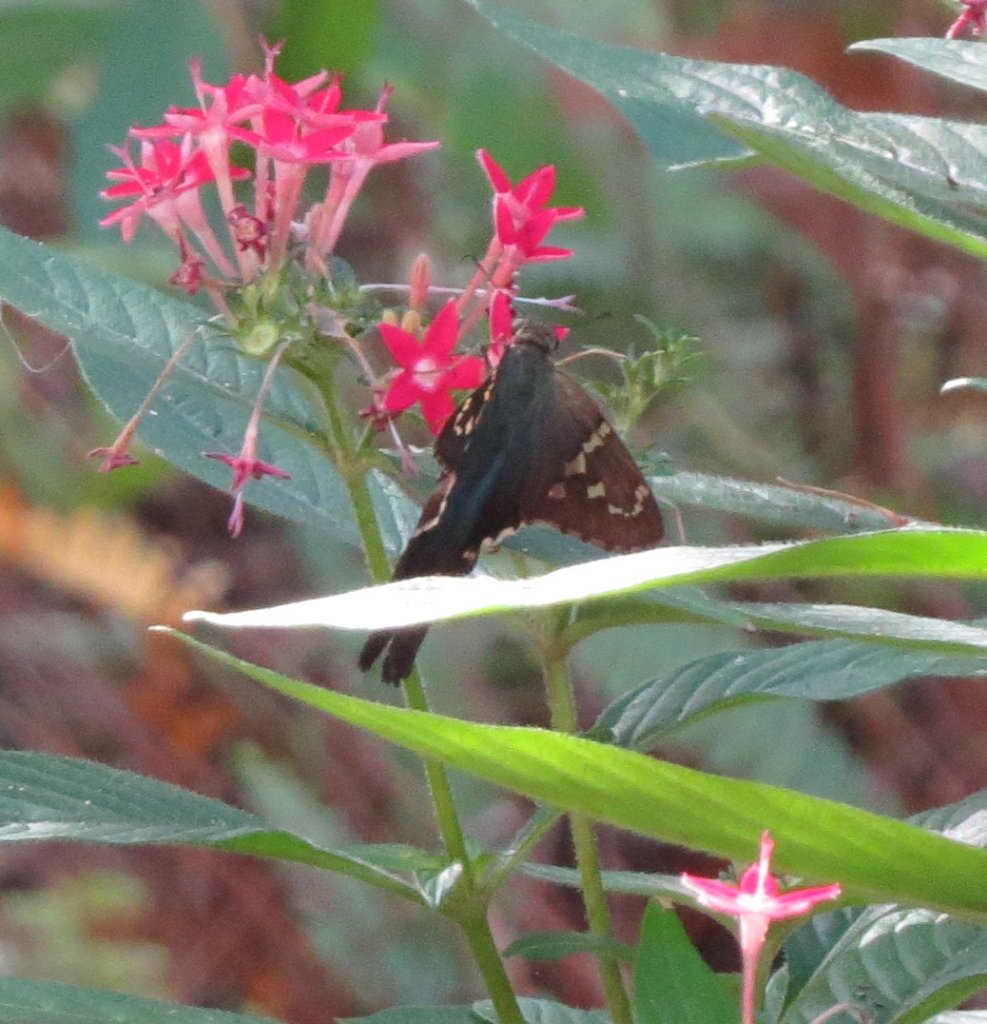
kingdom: Animalia
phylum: Arthropoda
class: Insecta
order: Lepidoptera
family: Hesperiidae
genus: Urbanus
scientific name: Urbanus proteus
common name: Long-tailed Skipper
